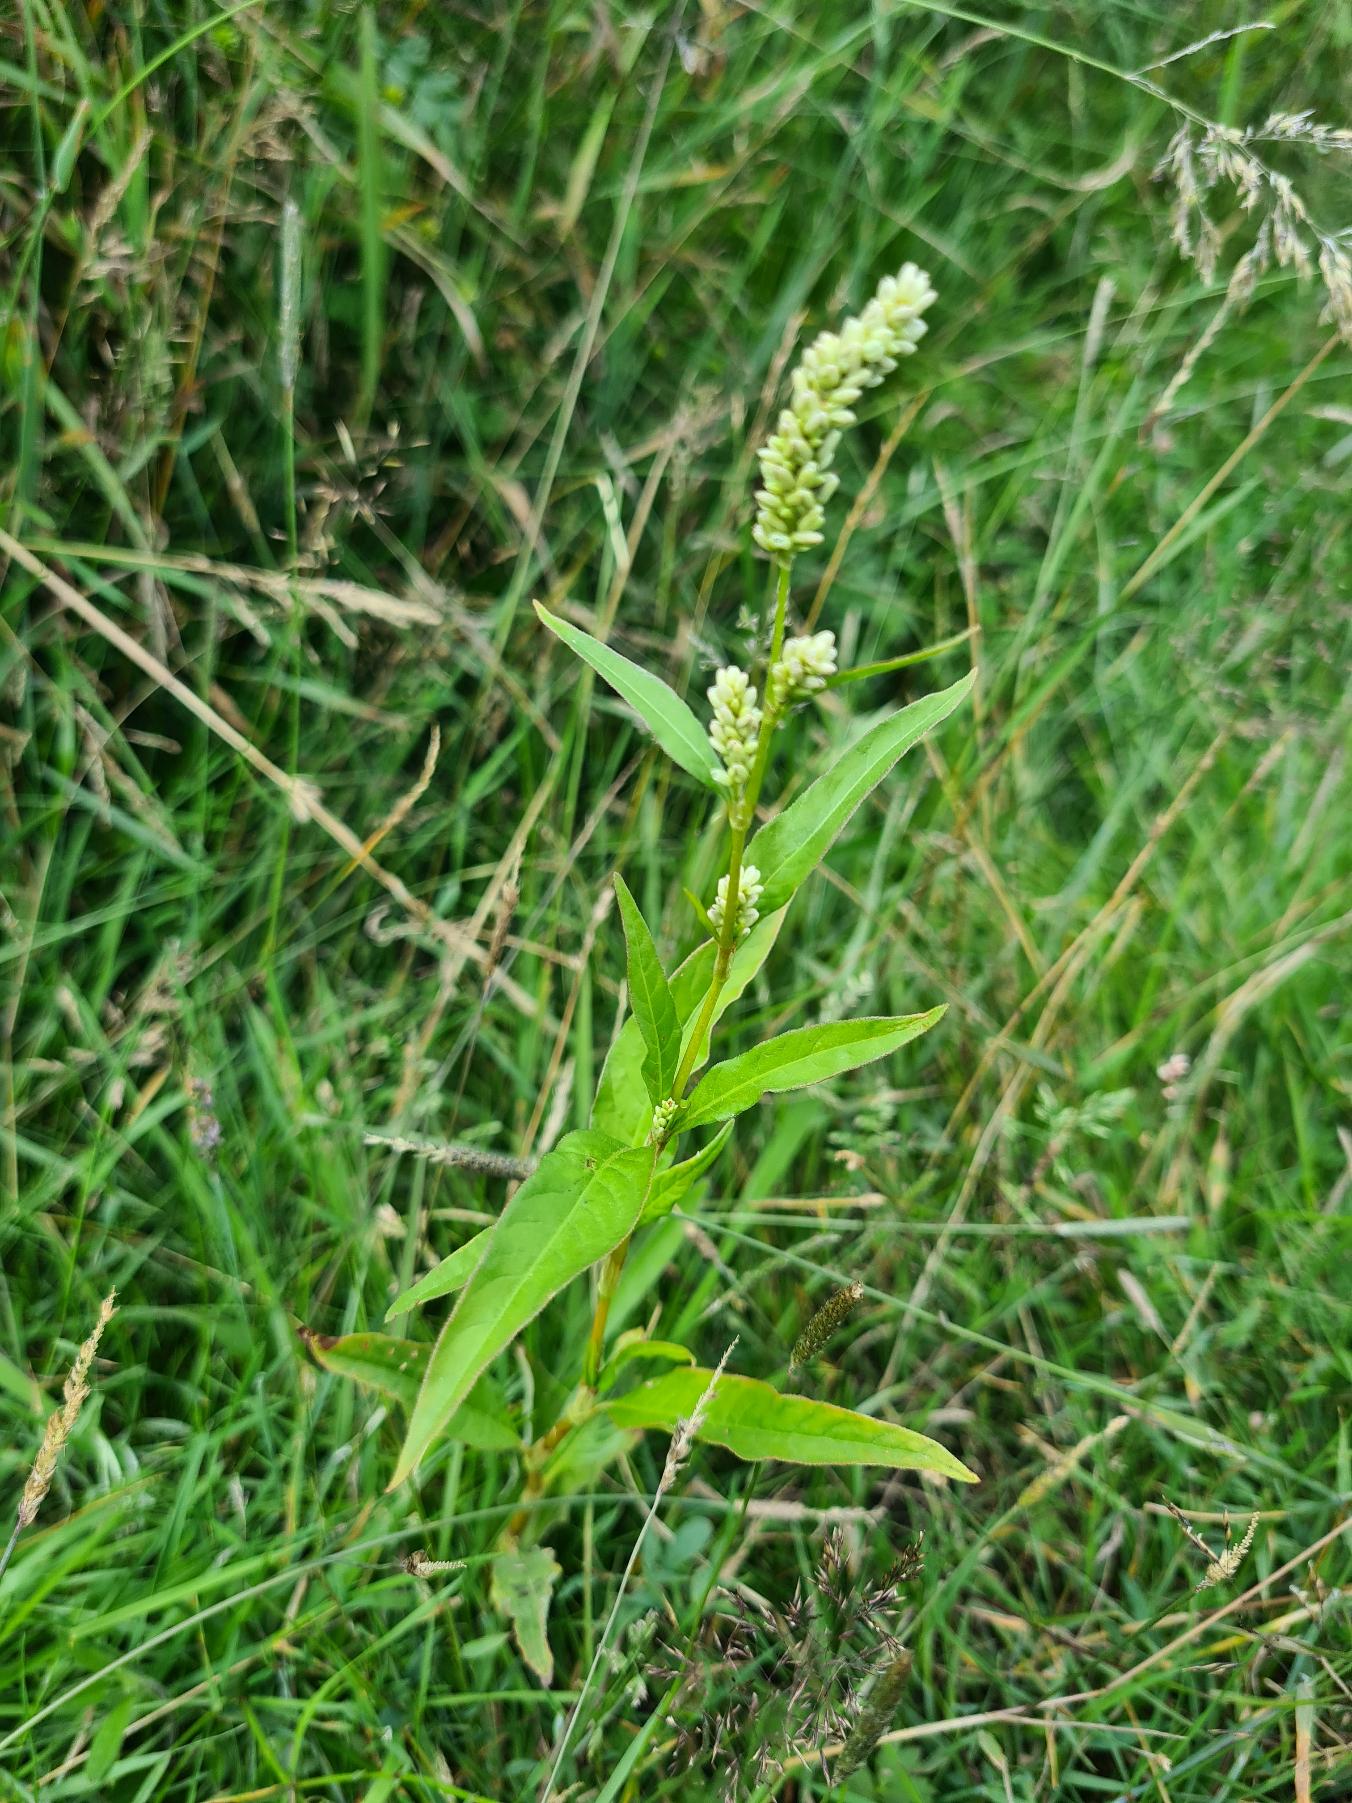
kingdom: Plantae
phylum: Tracheophyta
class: Magnoliopsida
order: Caryophyllales
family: Polygonaceae
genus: Persicaria
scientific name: Persicaria lapathifolia
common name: Bleg pileurt
